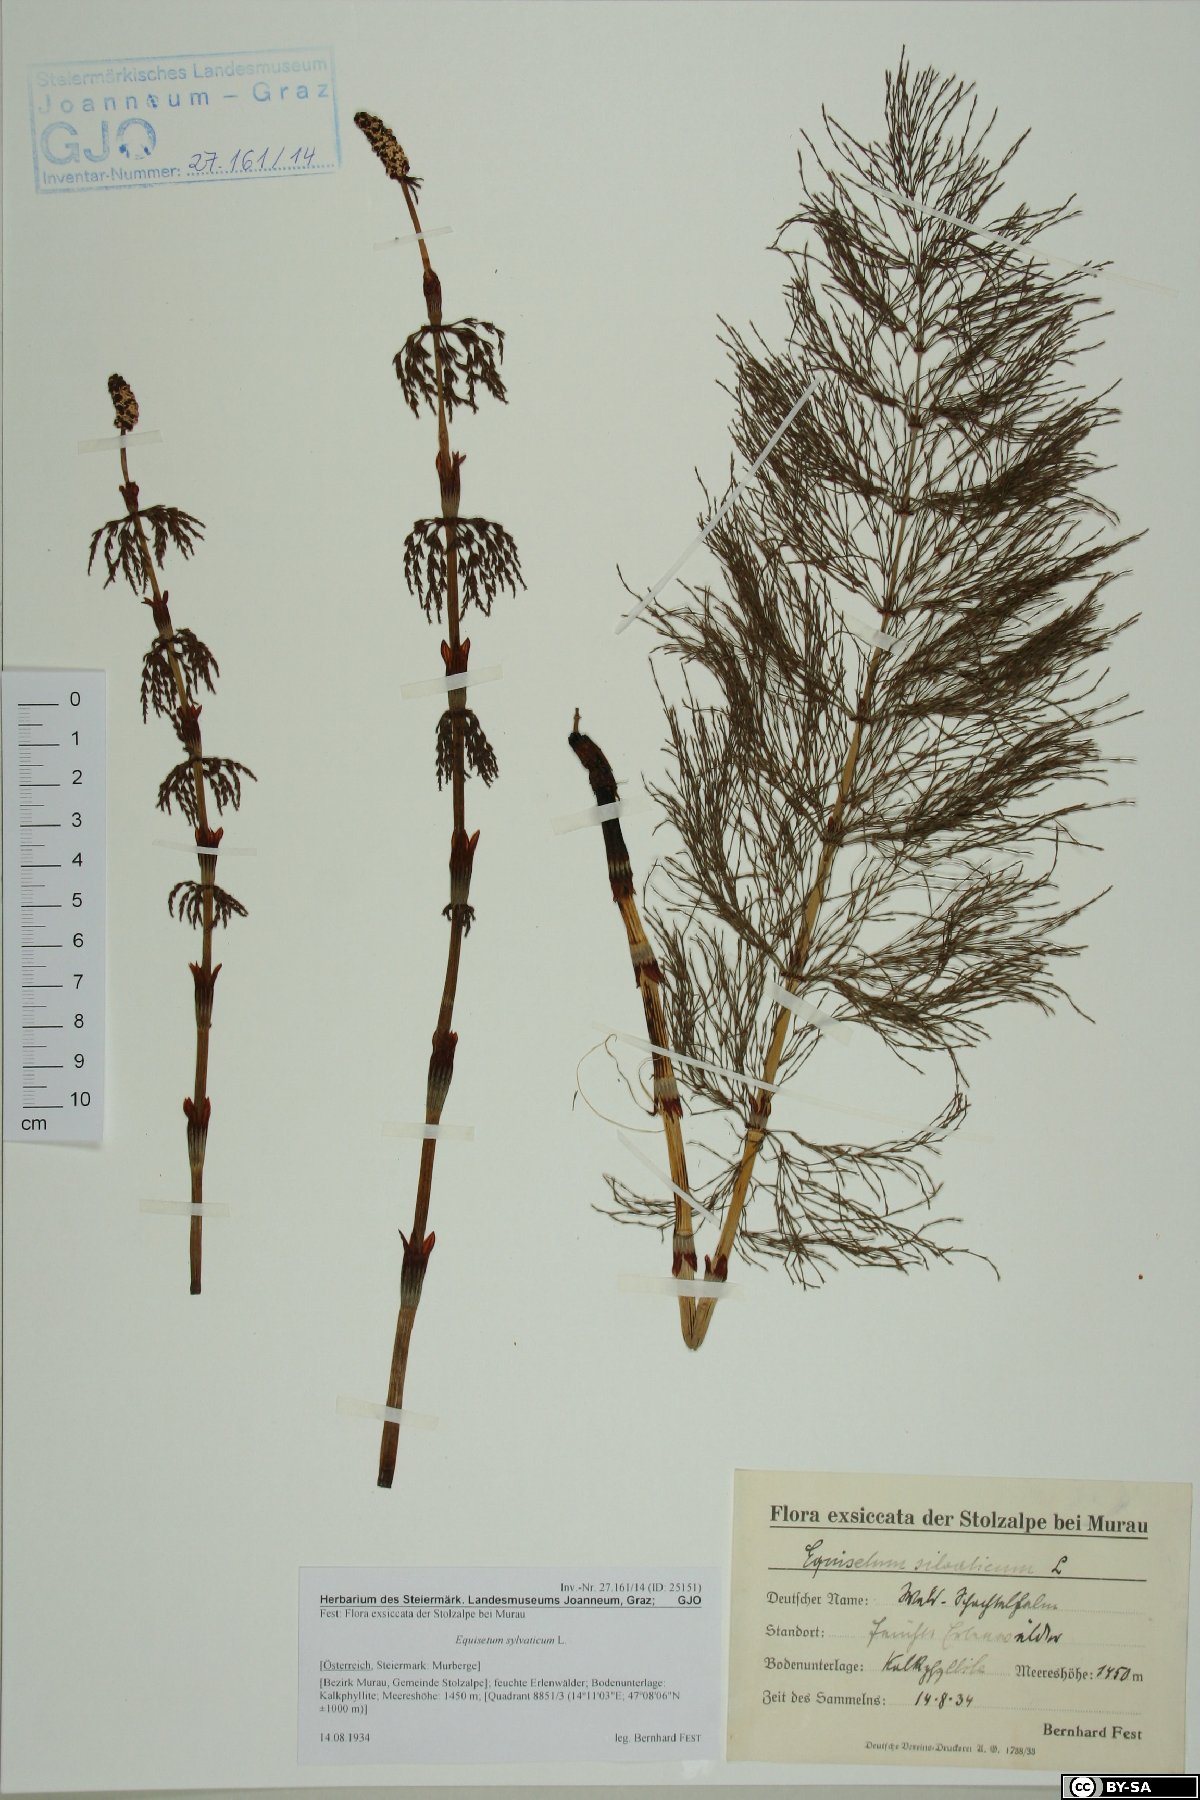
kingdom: Plantae
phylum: Tracheophyta
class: Polypodiopsida
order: Equisetales
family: Equisetaceae
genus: Equisetum
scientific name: Equisetum sylvaticum
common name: Wood horsetail
